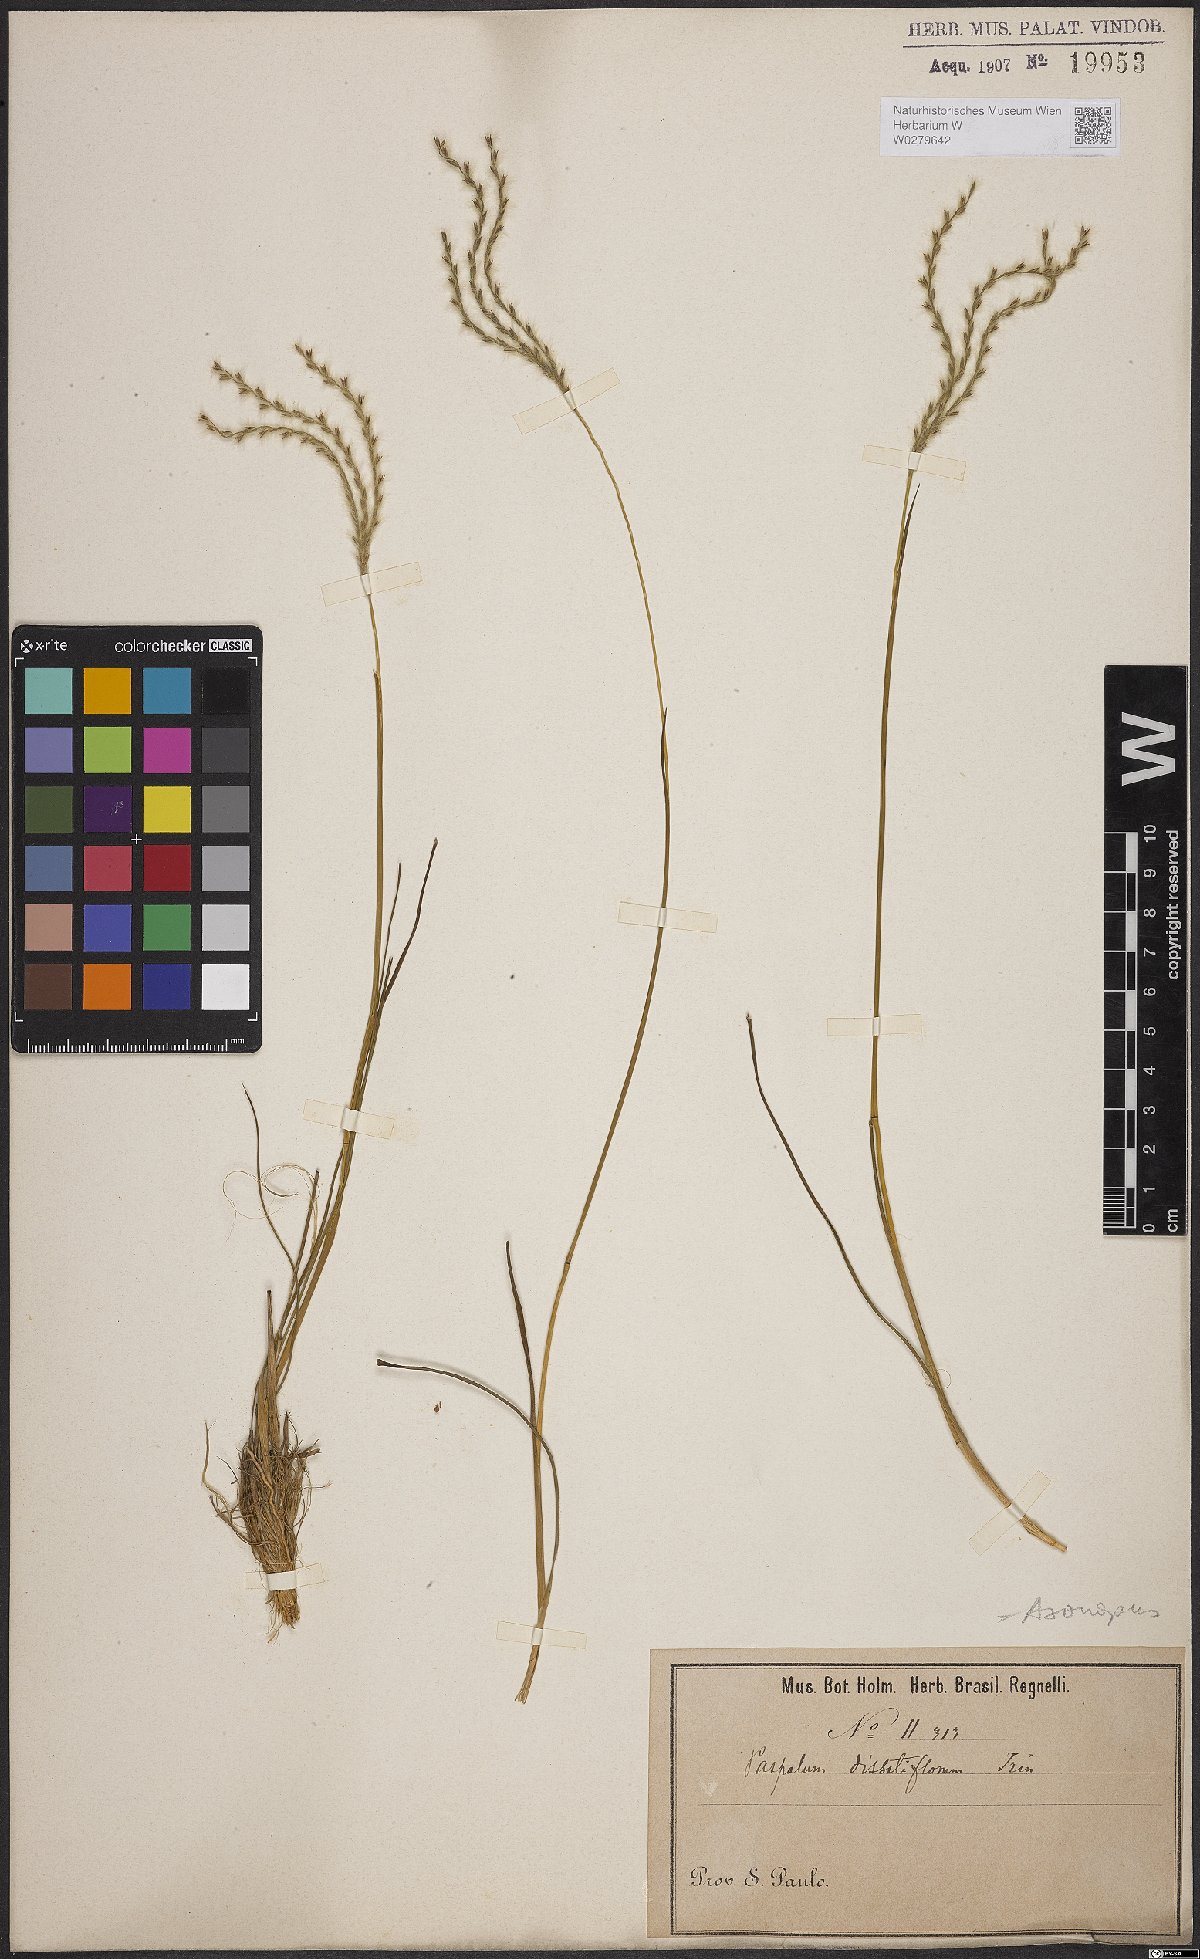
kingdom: Plantae
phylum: Tracheophyta
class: Liliopsida
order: Poales
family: Poaceae
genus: Axonopus
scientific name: Axonopus brasiliensis
